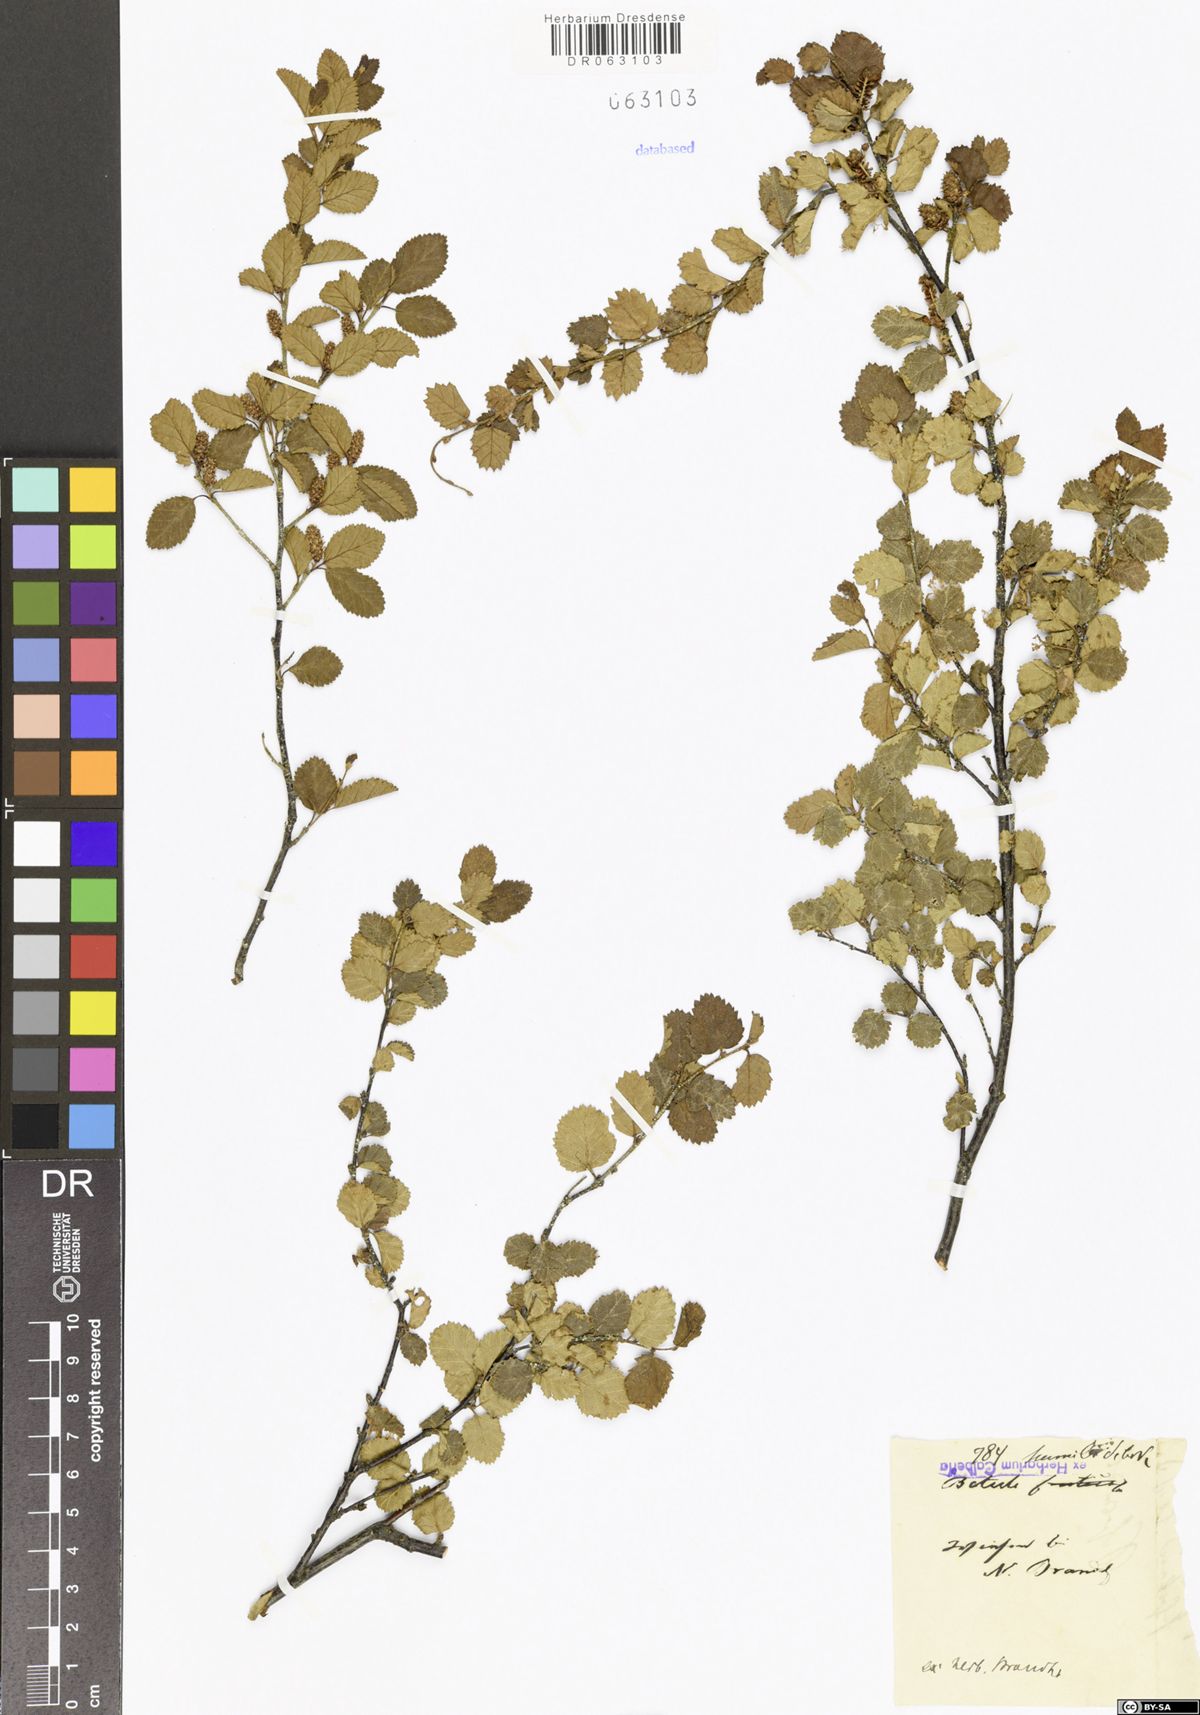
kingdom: Plantae
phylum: Tracheophyta
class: Magnoliopsida
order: Fagales
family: Betulaceae
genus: Betula
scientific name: Betula humilis
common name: Shrubby birch
